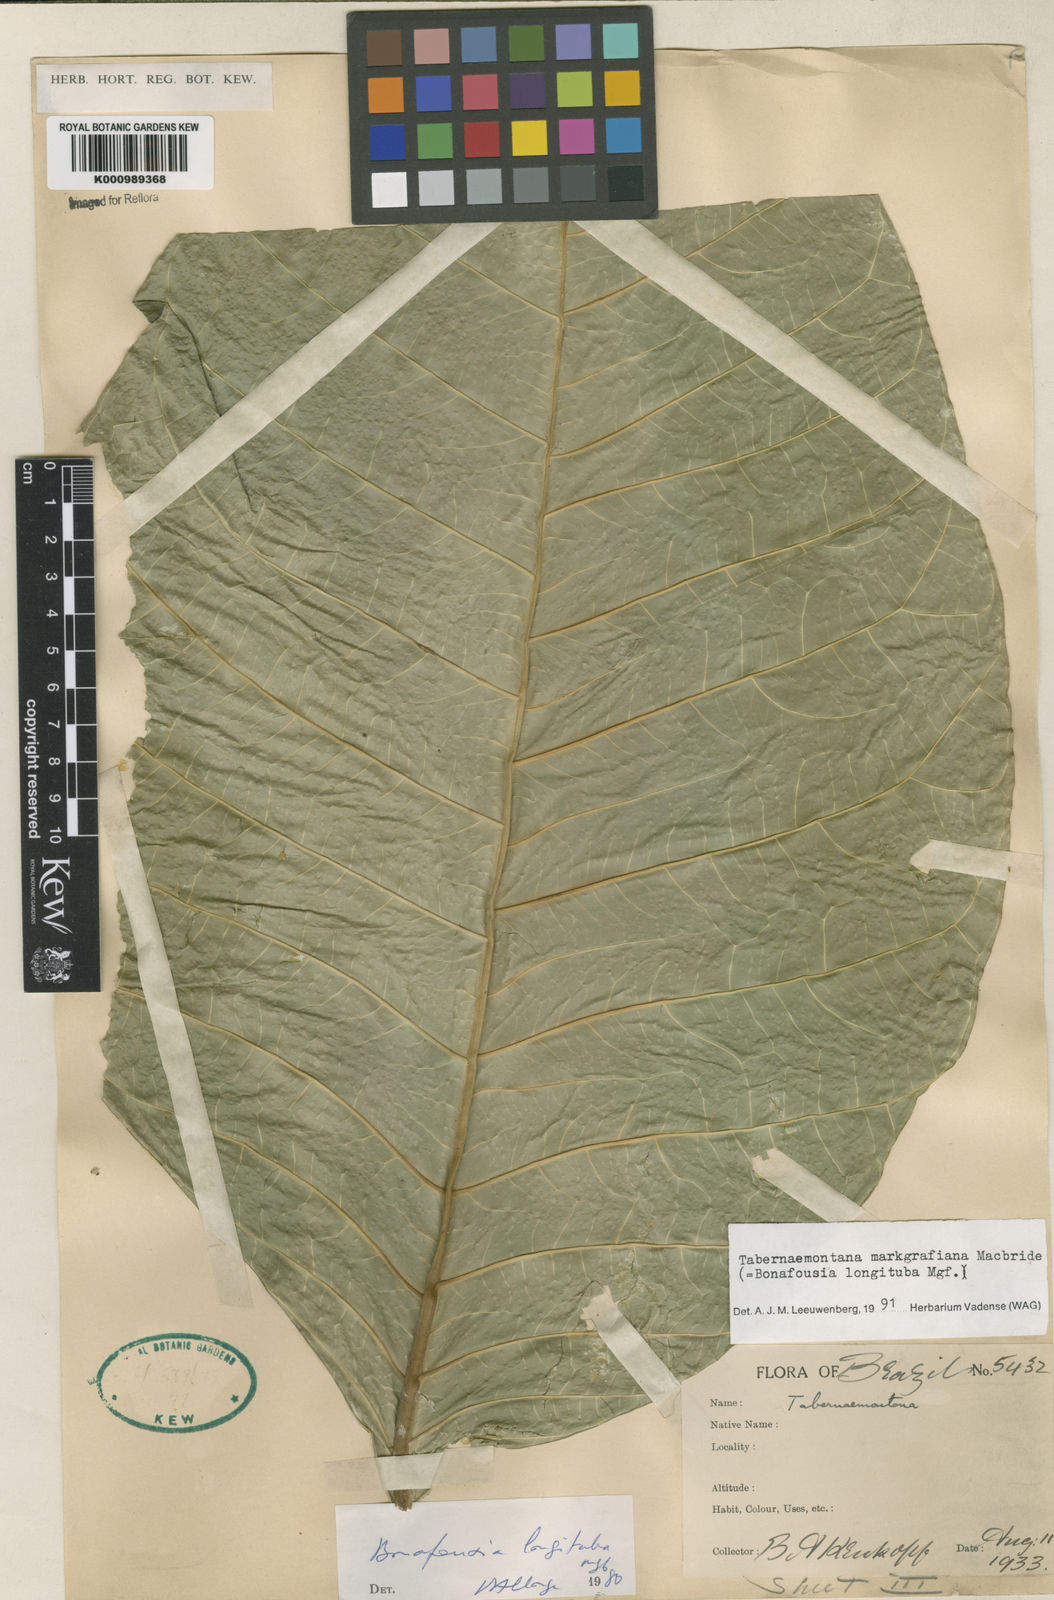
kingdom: Plantae
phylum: Tracheophyta
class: Magnoliopsida
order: Gentianales
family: Apocynaceae
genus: Tabernaemontana
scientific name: Tabernaemontana markgrafiana
